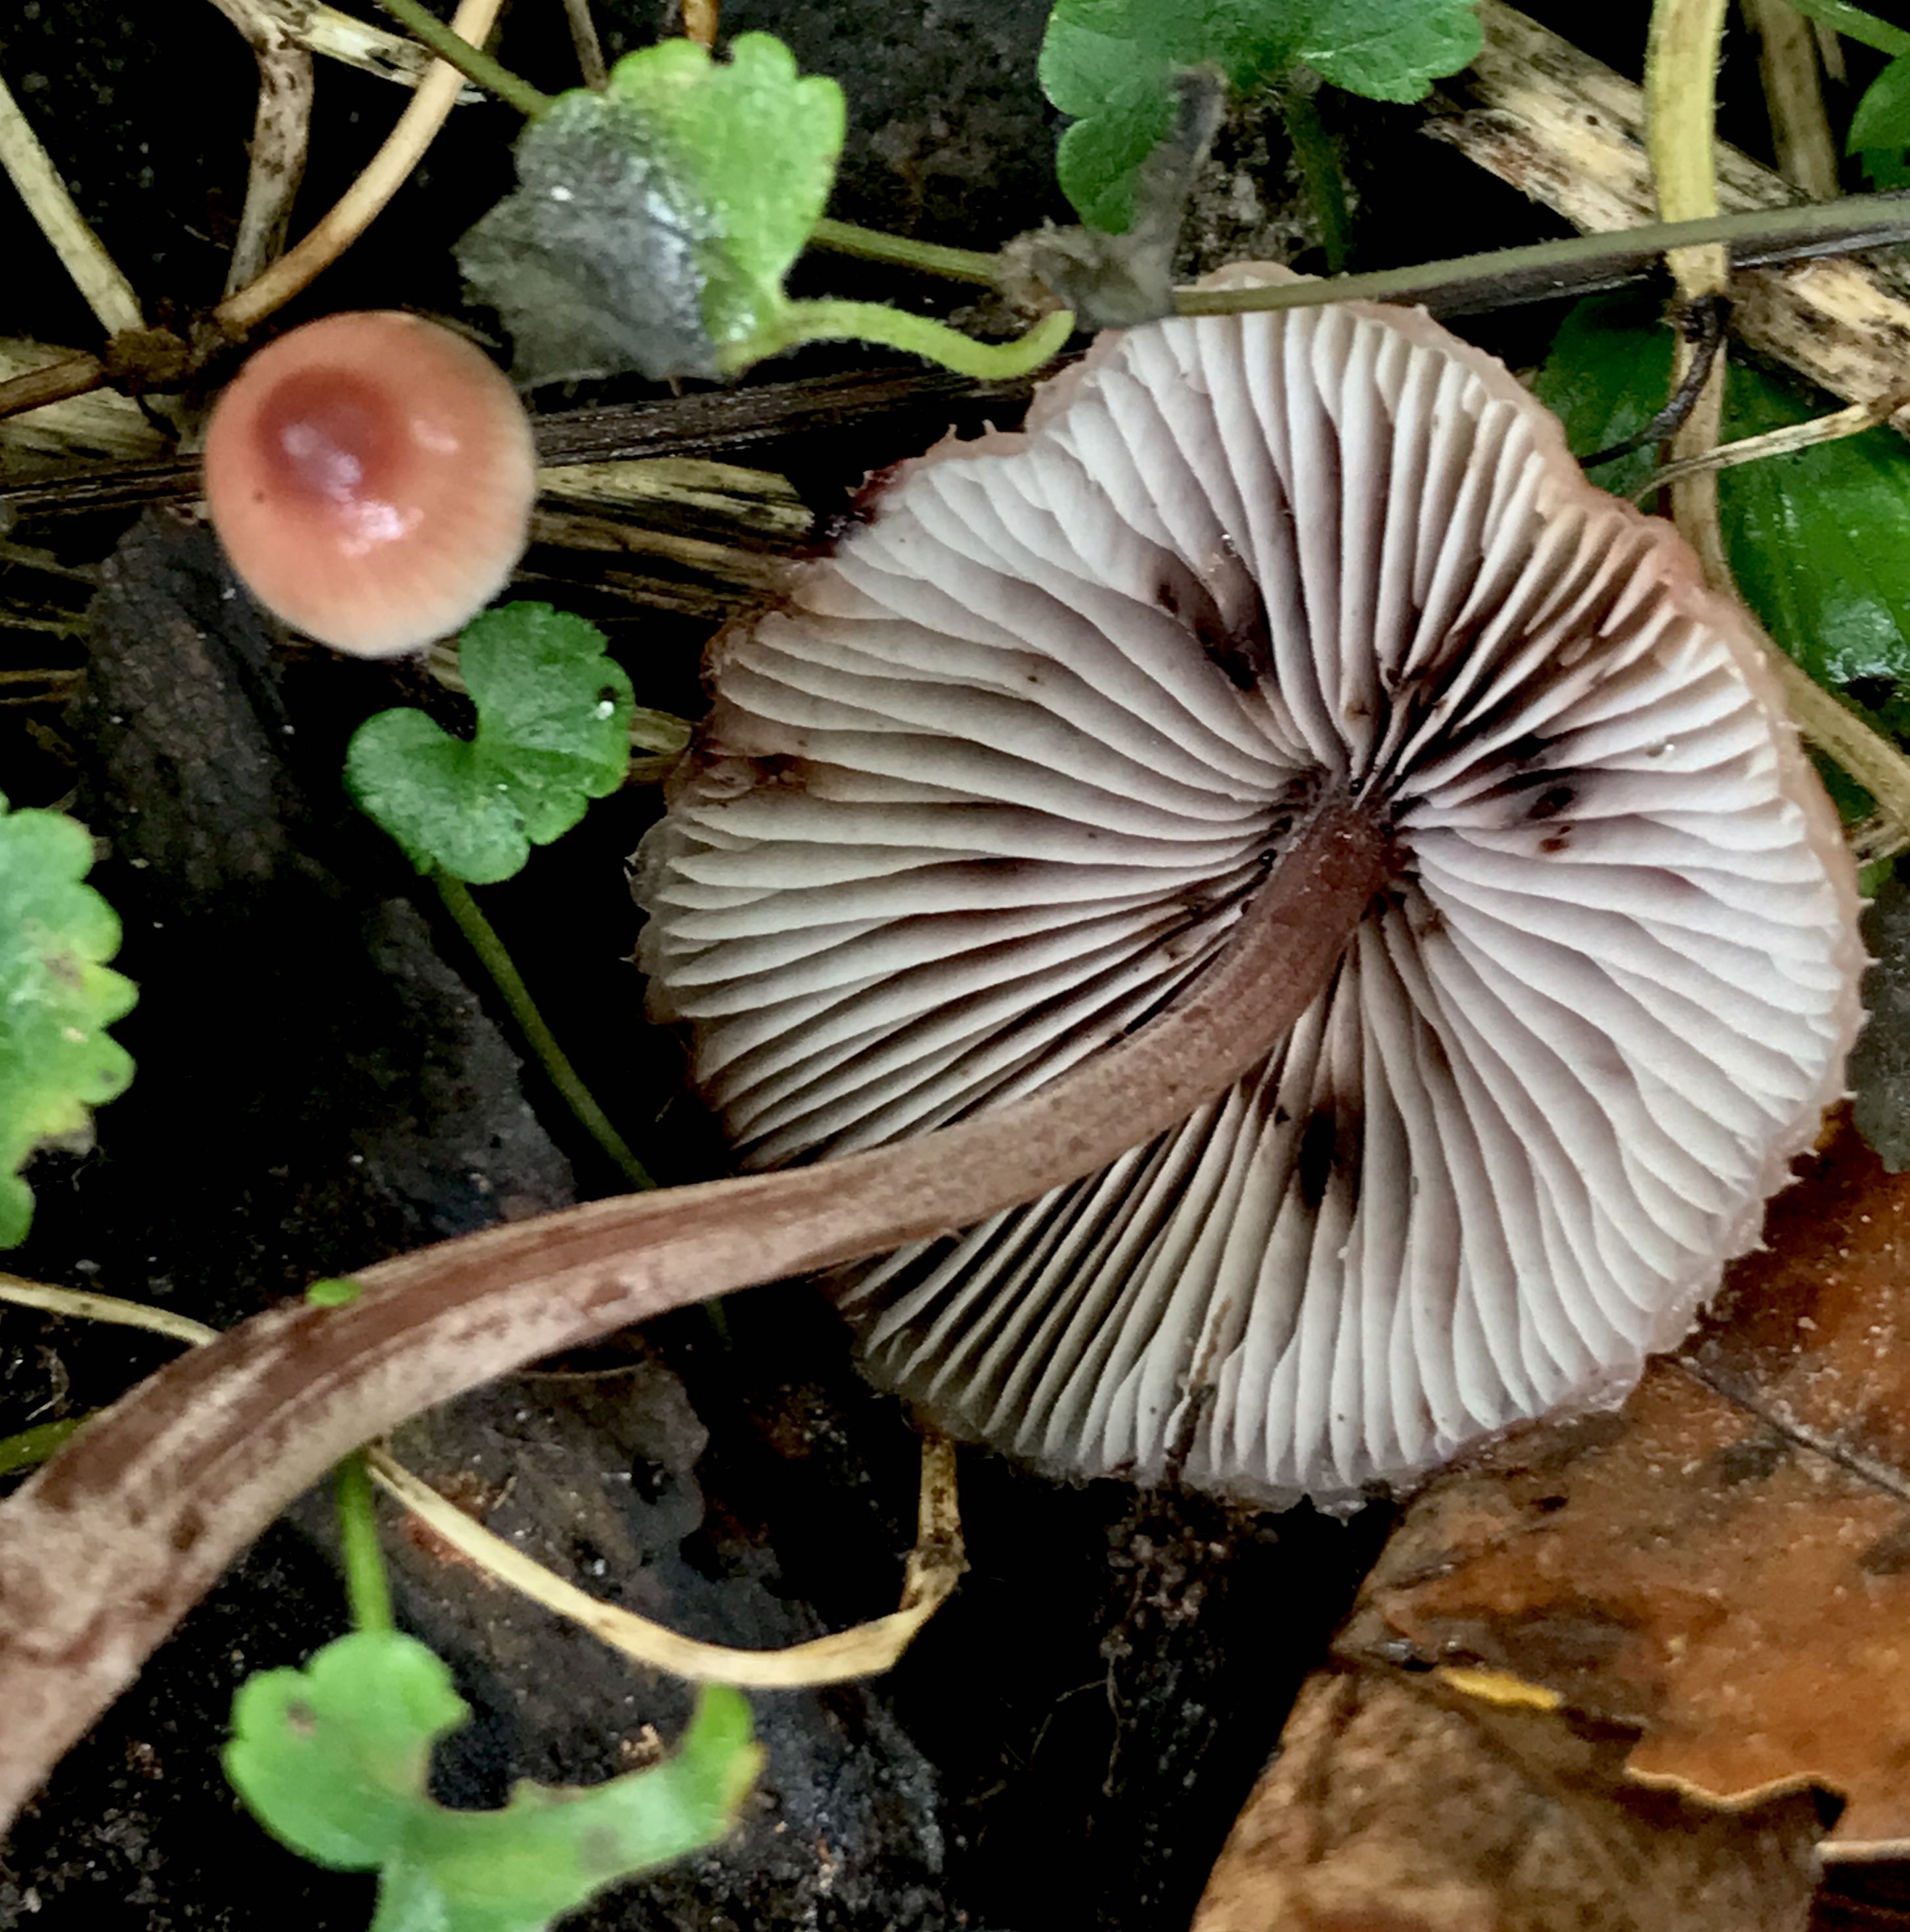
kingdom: Fungi
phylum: Basidiomycota
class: Agaricomycetes
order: Agaricales
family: Mycenaceae
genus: Mycena
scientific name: Mycena haematopus
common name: blødende huesvamp
